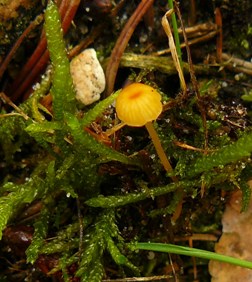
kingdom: Fungi
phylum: Basidiomycota
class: Agaricomycetes
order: Hymenochaetales
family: Rickenellaceae
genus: Rickenella
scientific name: Rickenella fibula
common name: orange mosnavlehat
